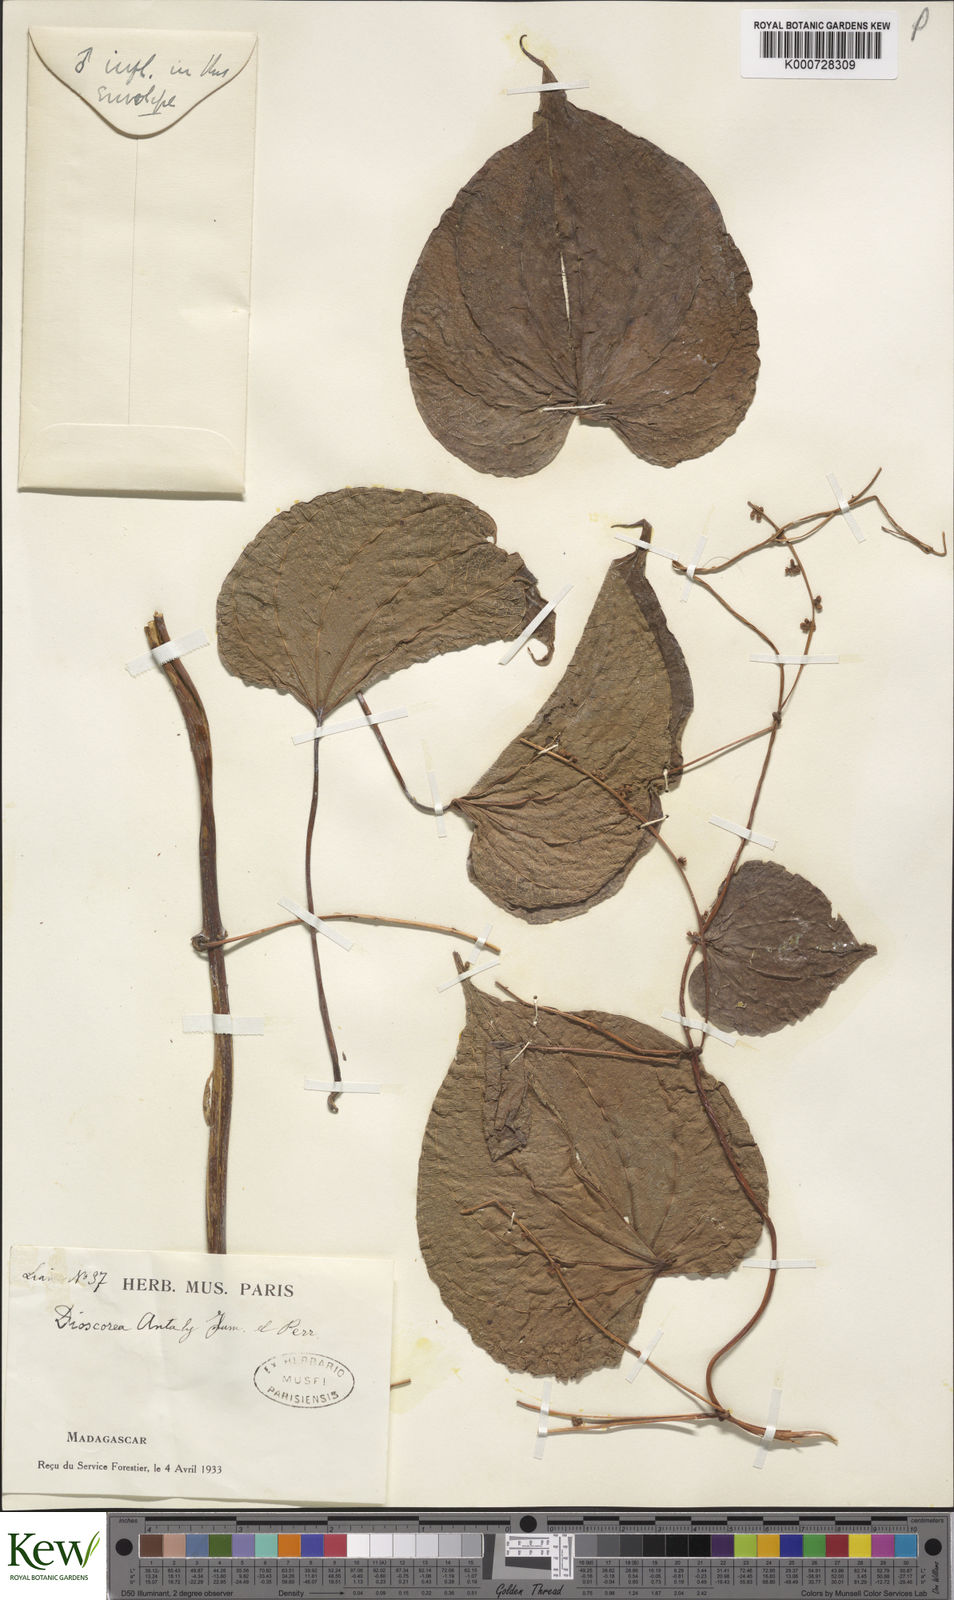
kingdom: Plantae
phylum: Tracheophyta
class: Liliopsida
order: Dioscoreales
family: Dioscoreaceae
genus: Dioscorea
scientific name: Dioscorea antaly
